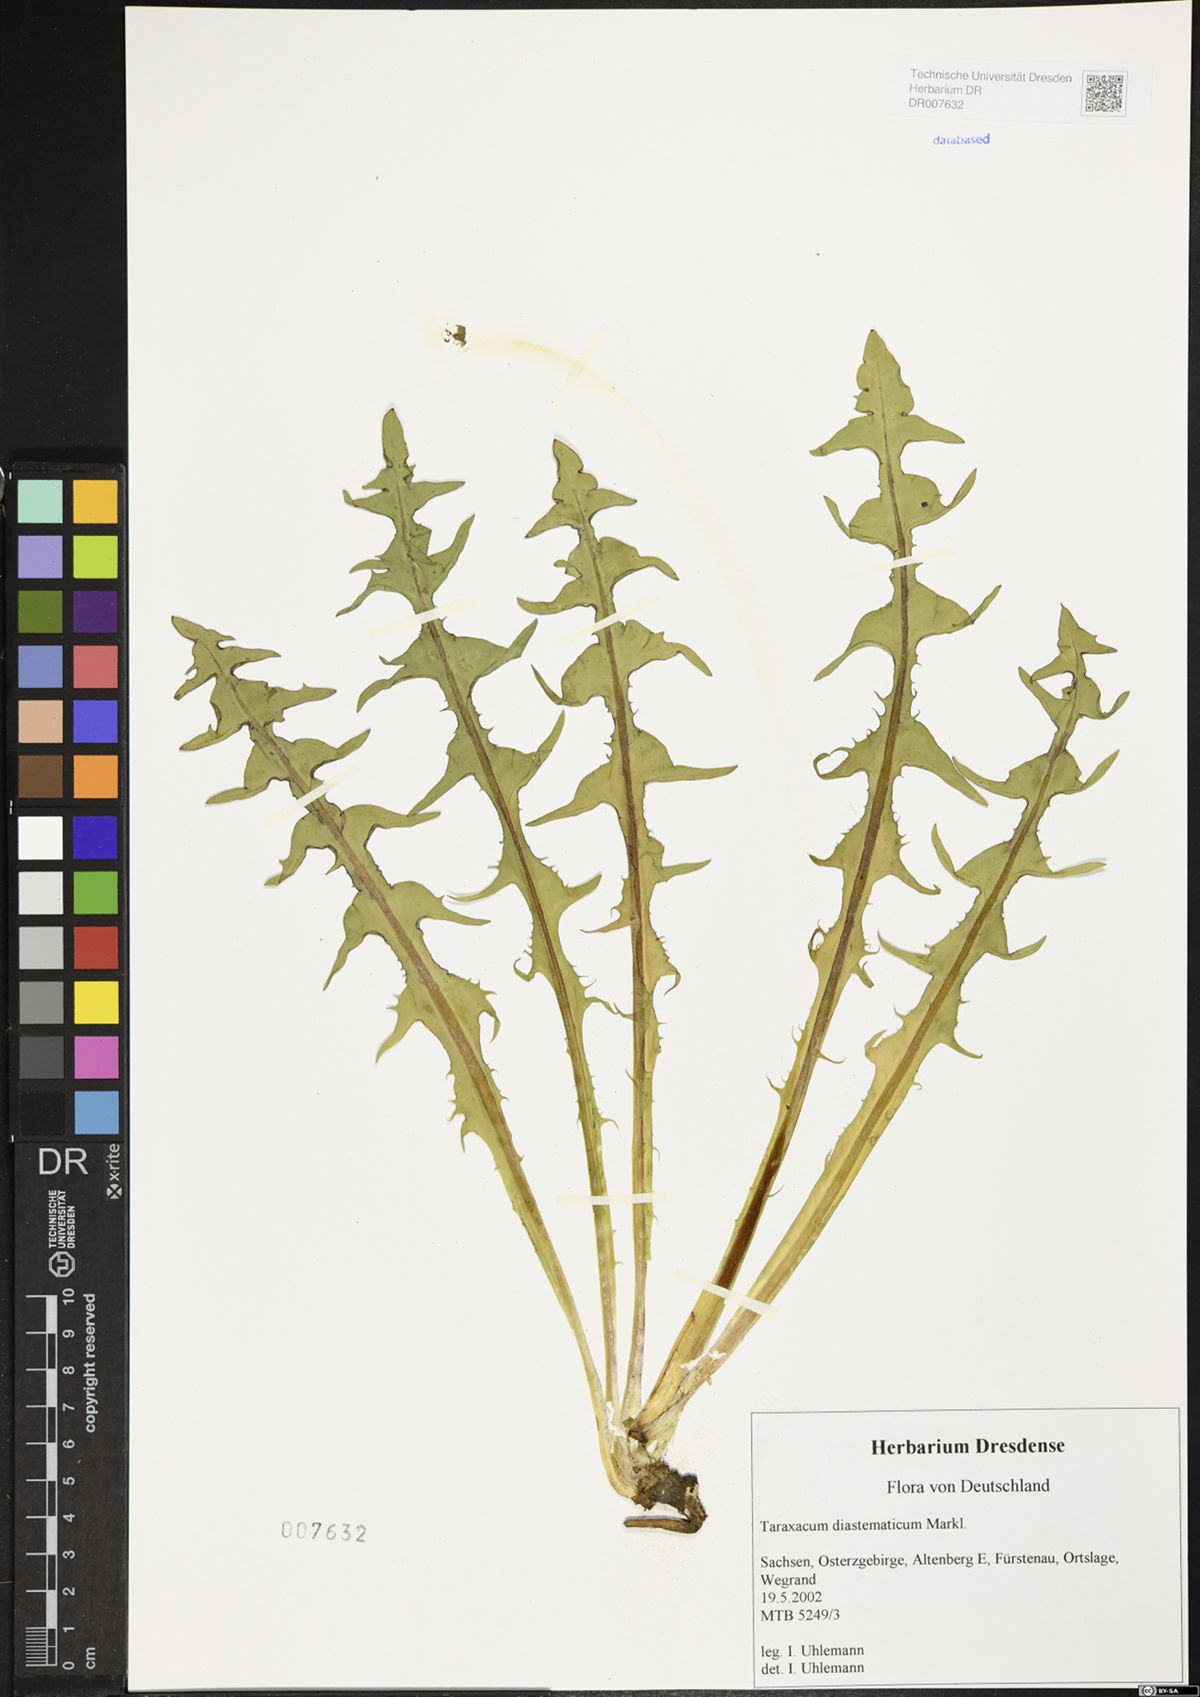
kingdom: Plantae
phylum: Tracheophyta
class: Magnoliopsida
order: Asterales
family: Asteraceae
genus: Taraxacum
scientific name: Taraxacum diastematicum
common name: Bulbous-lobed dandelion
